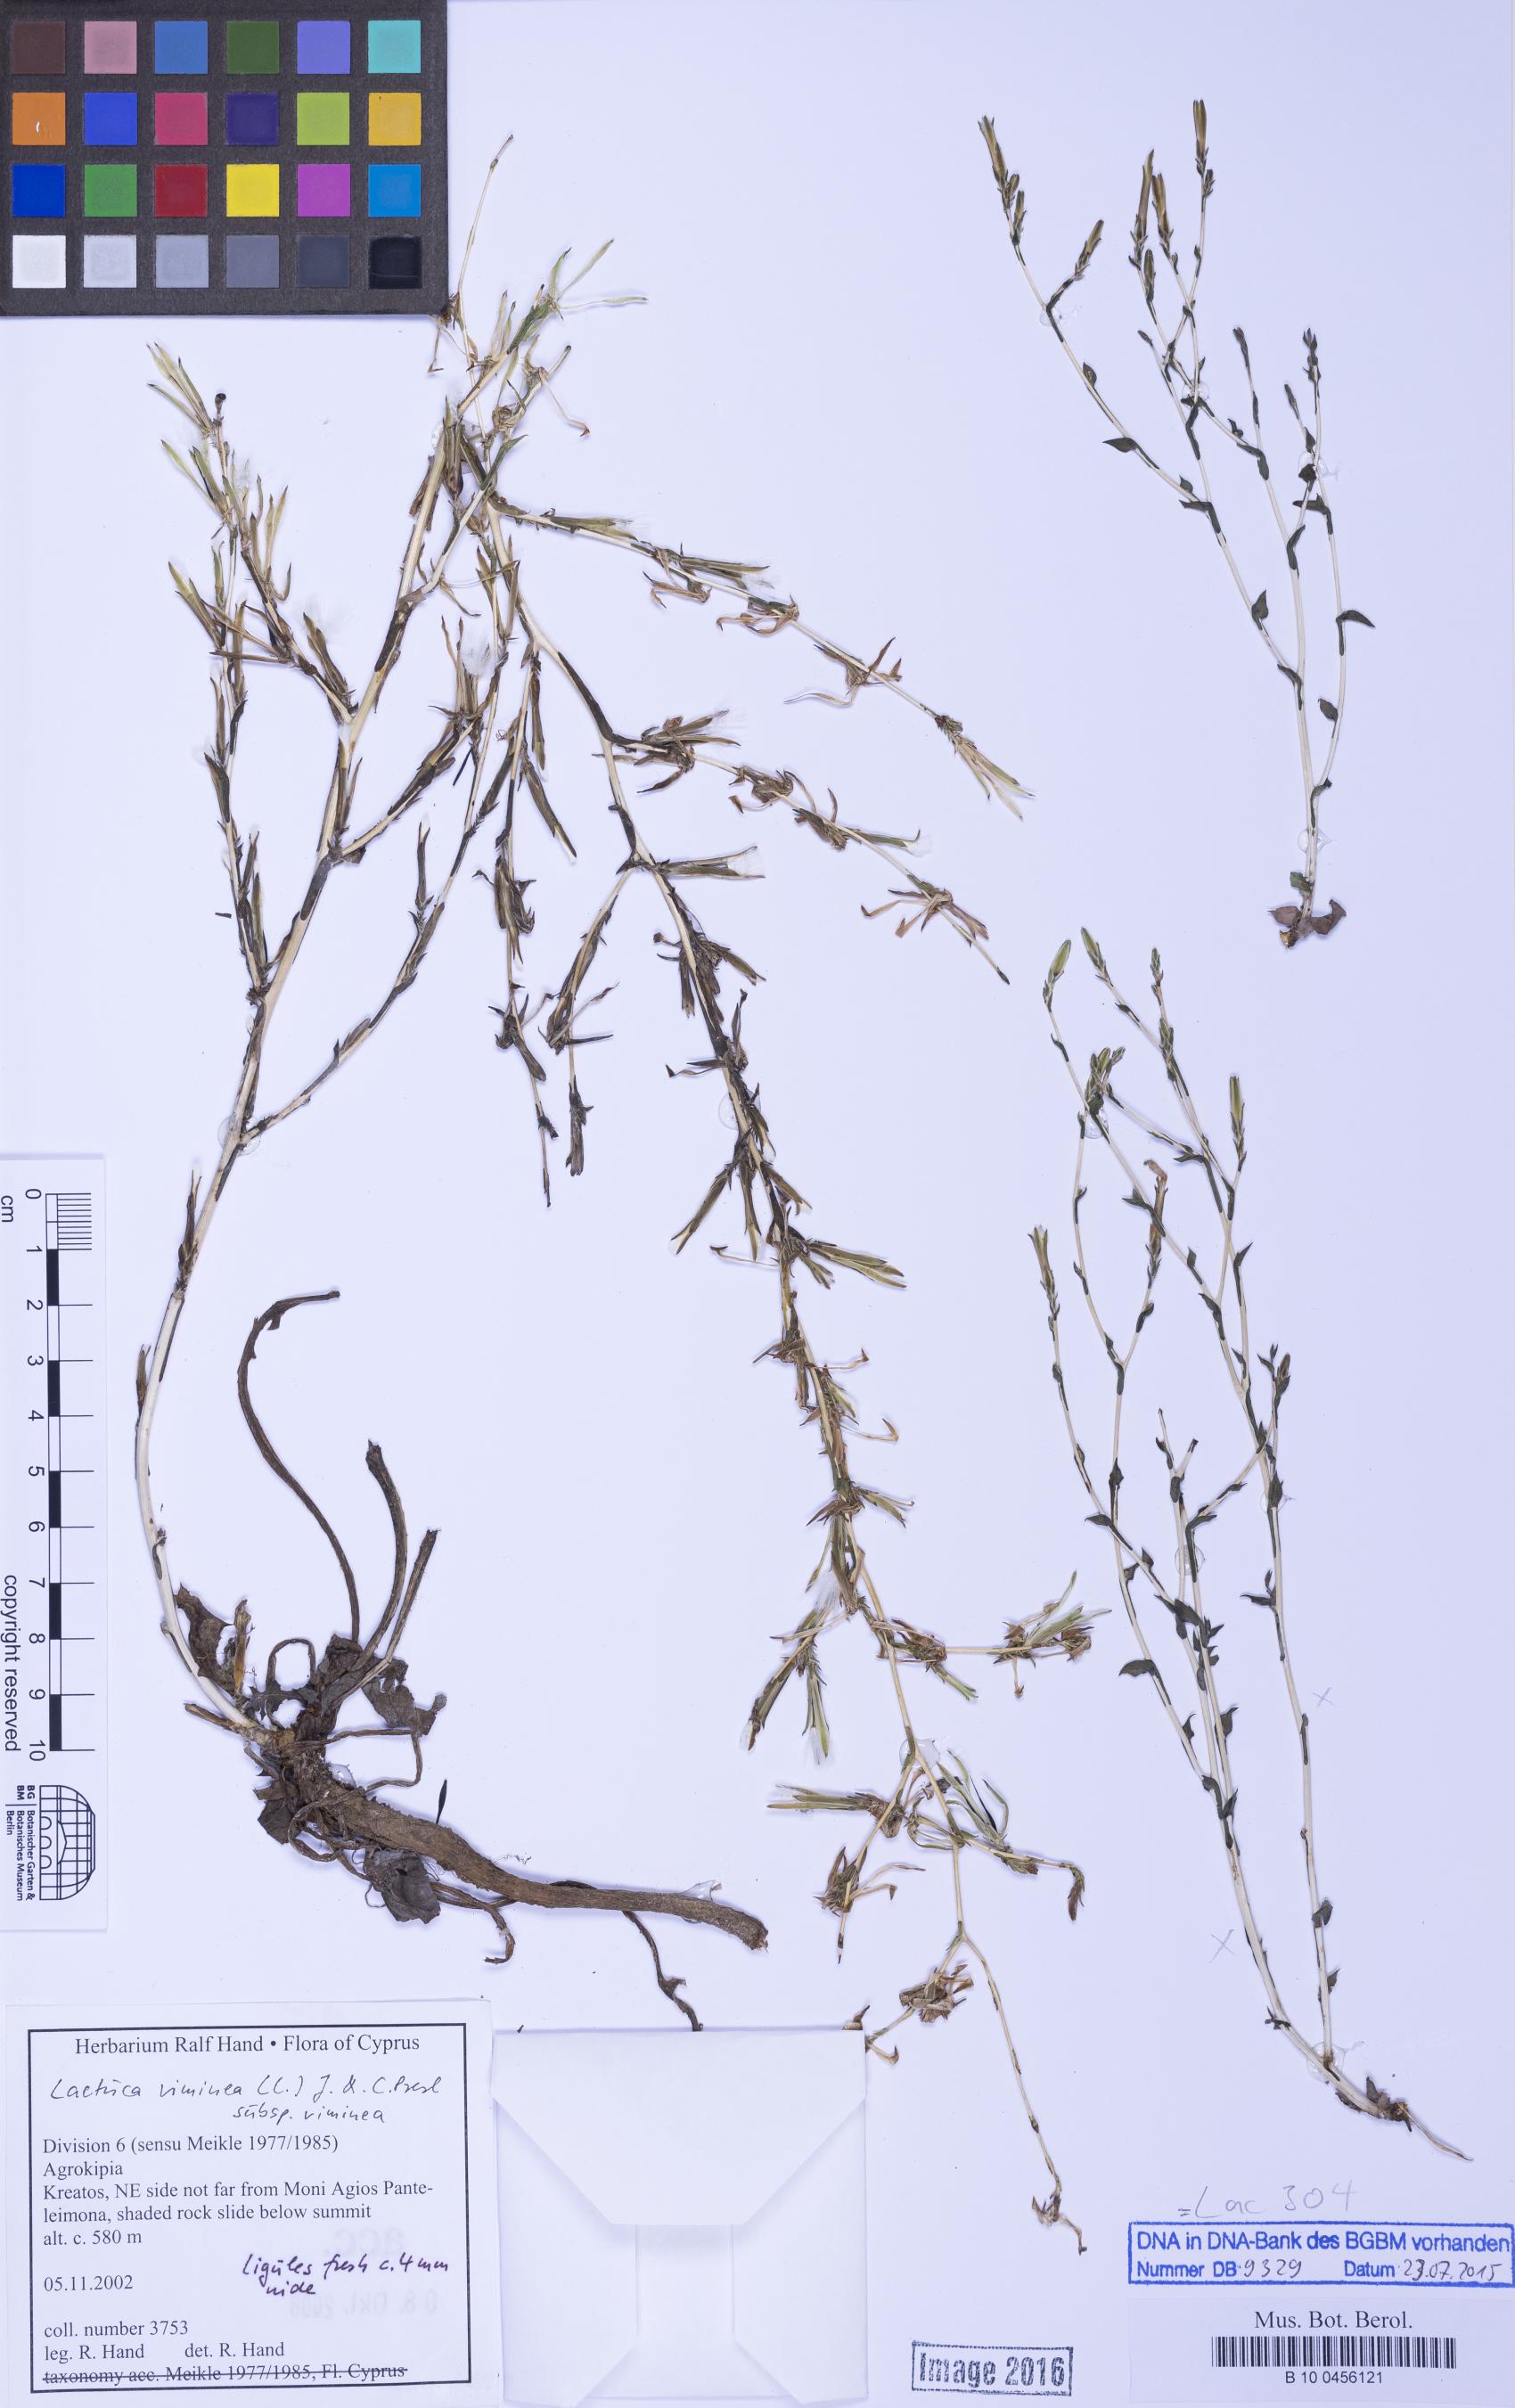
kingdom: Plantae
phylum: Tracheophyta
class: Magnoliopsida
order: Asterales
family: Asteraceae
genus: Lactuca
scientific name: Lactuca viminea
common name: Pliant lettuce
